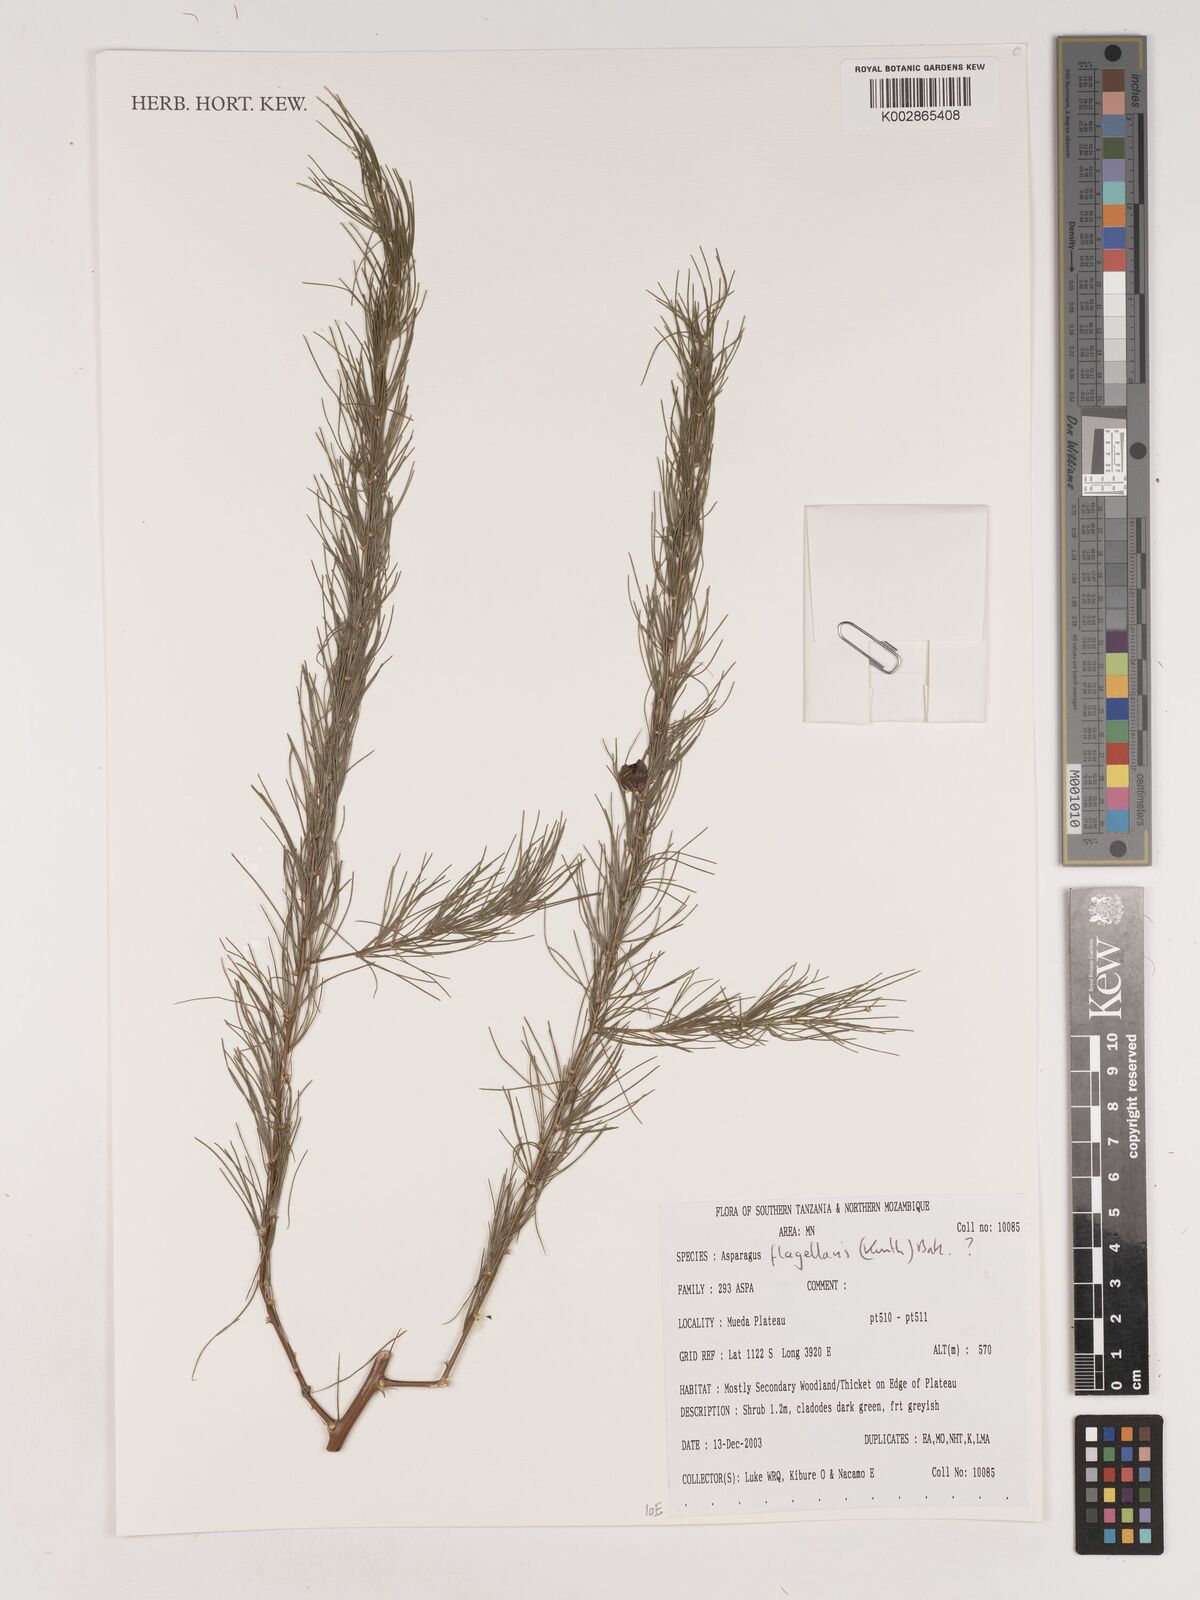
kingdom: Plantae
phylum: Tracheophyta
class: Liliopsida
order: Asparagales
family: Asparagaceae
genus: Asparagus
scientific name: Asparagus flagellaris
